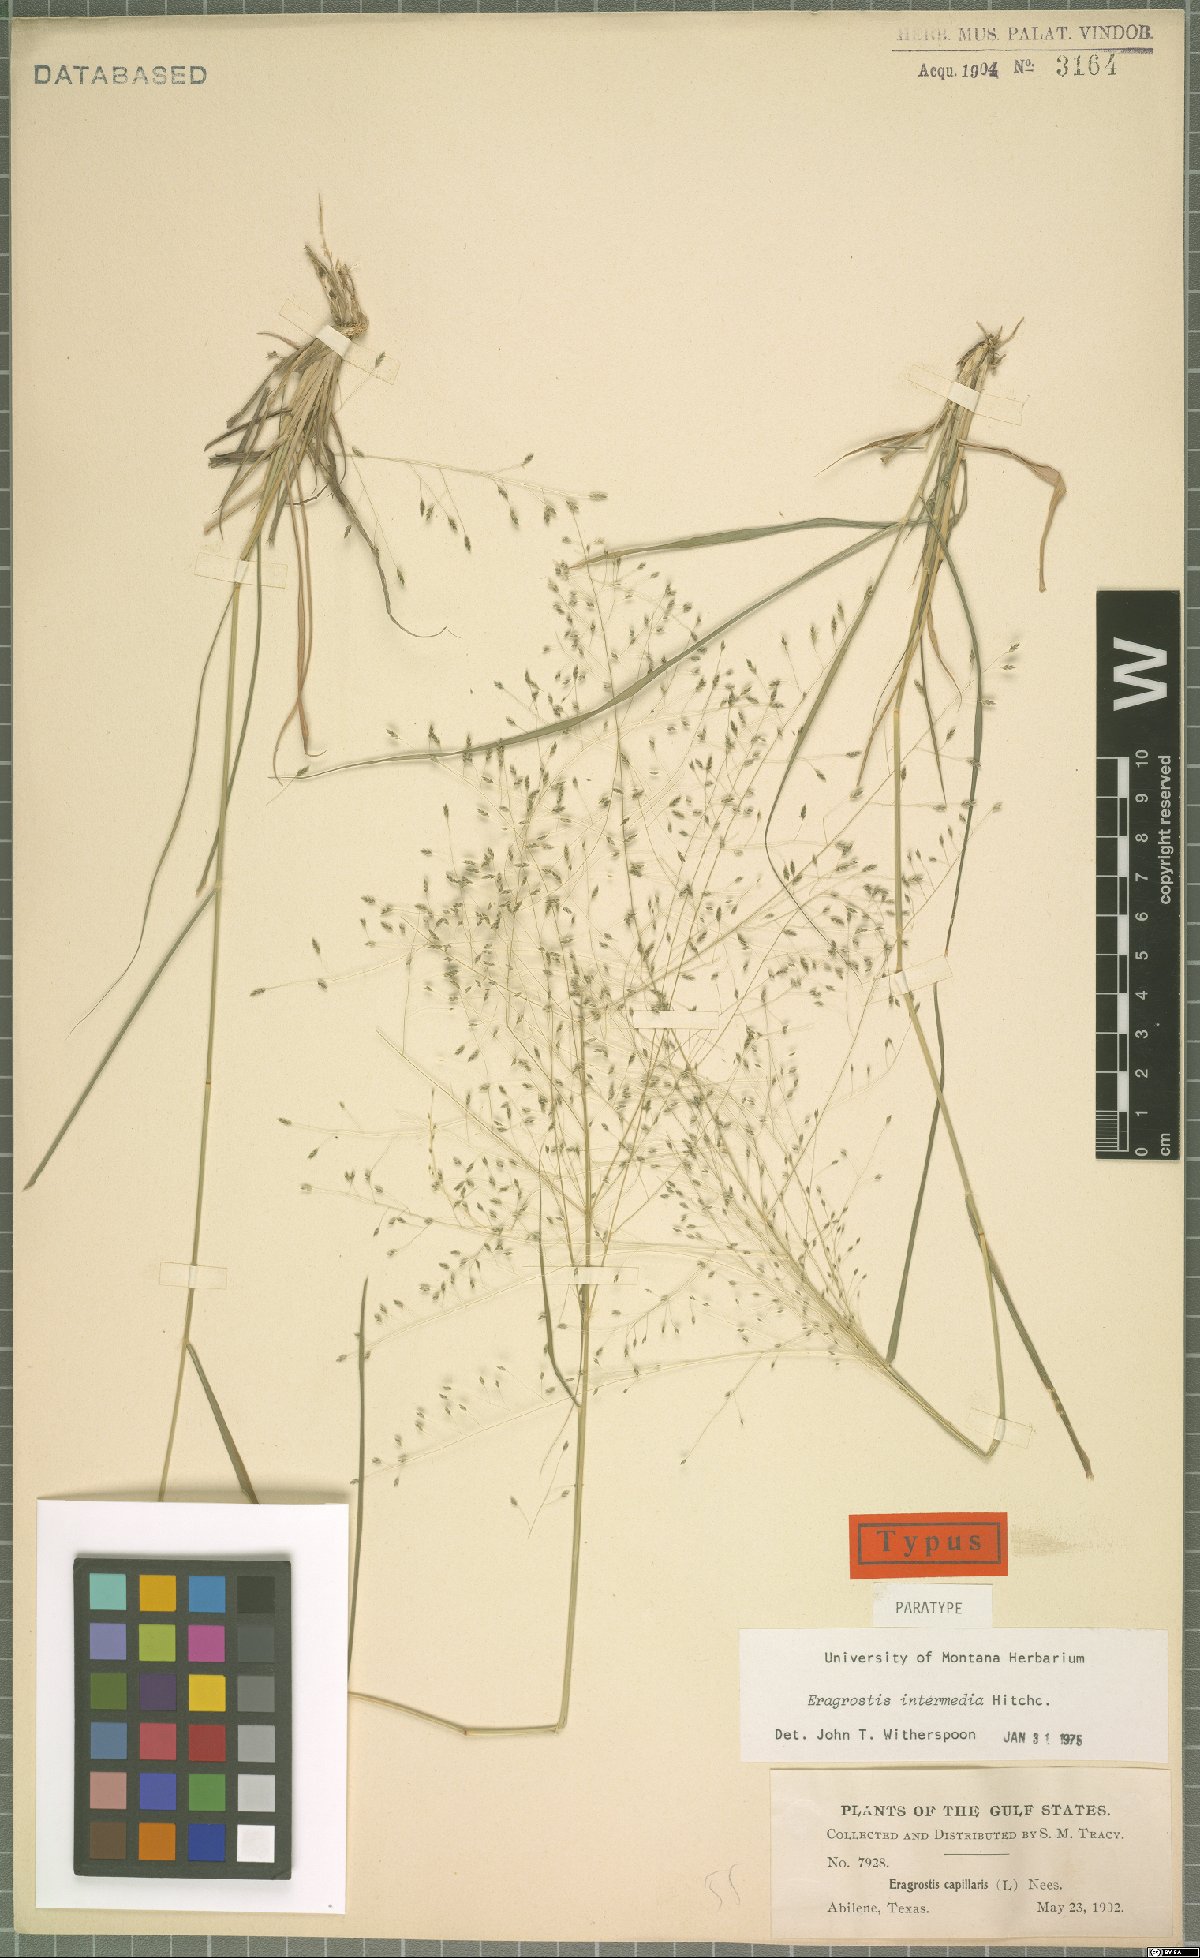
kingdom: Plantae
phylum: Tracheophyta
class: Liliopsida
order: Poales
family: Poaceae
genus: Eragrostis
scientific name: Eragrostis intermedia
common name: Plains love grass
